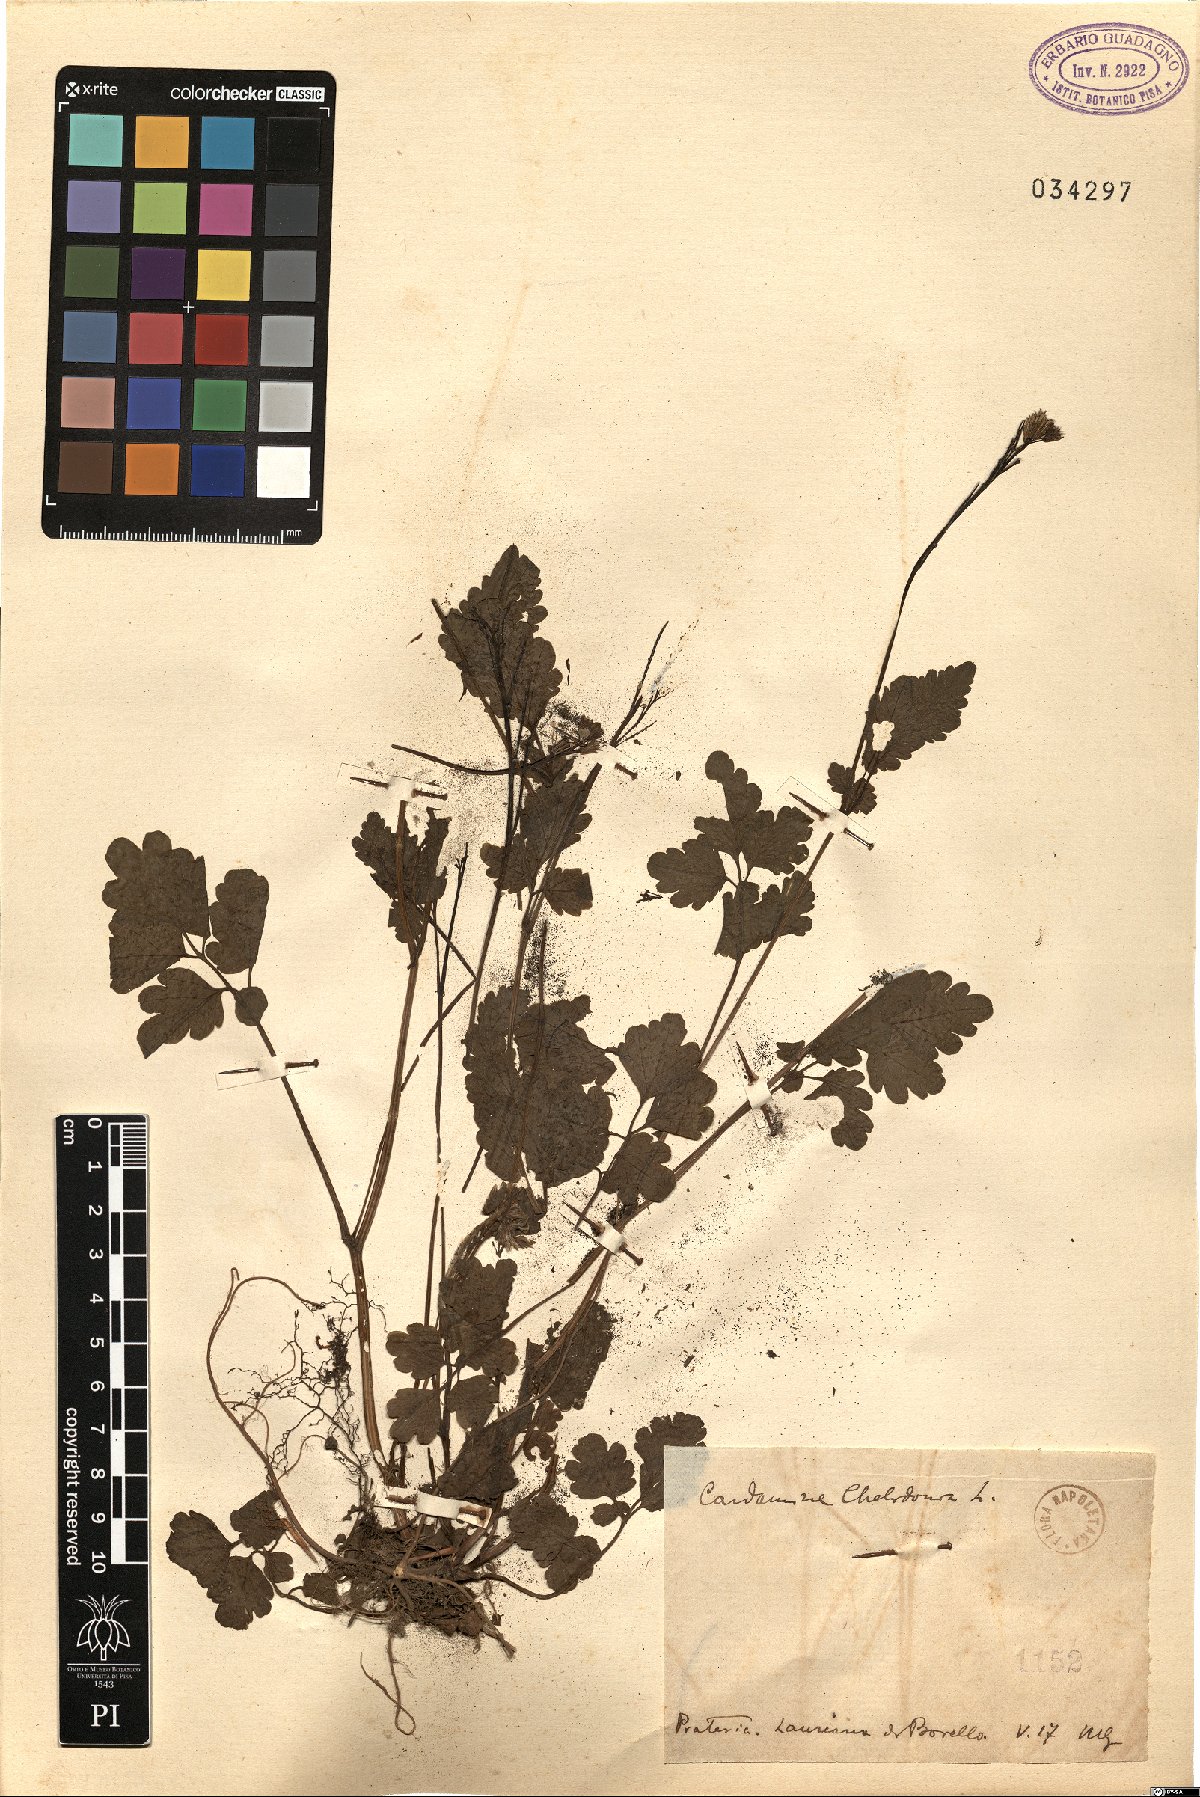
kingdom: Plantae
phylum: Tracheophyta
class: Magnoliopsida
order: Brassicales
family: Brassicaceae
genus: Cardamine
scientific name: Cardamine chelidonia
